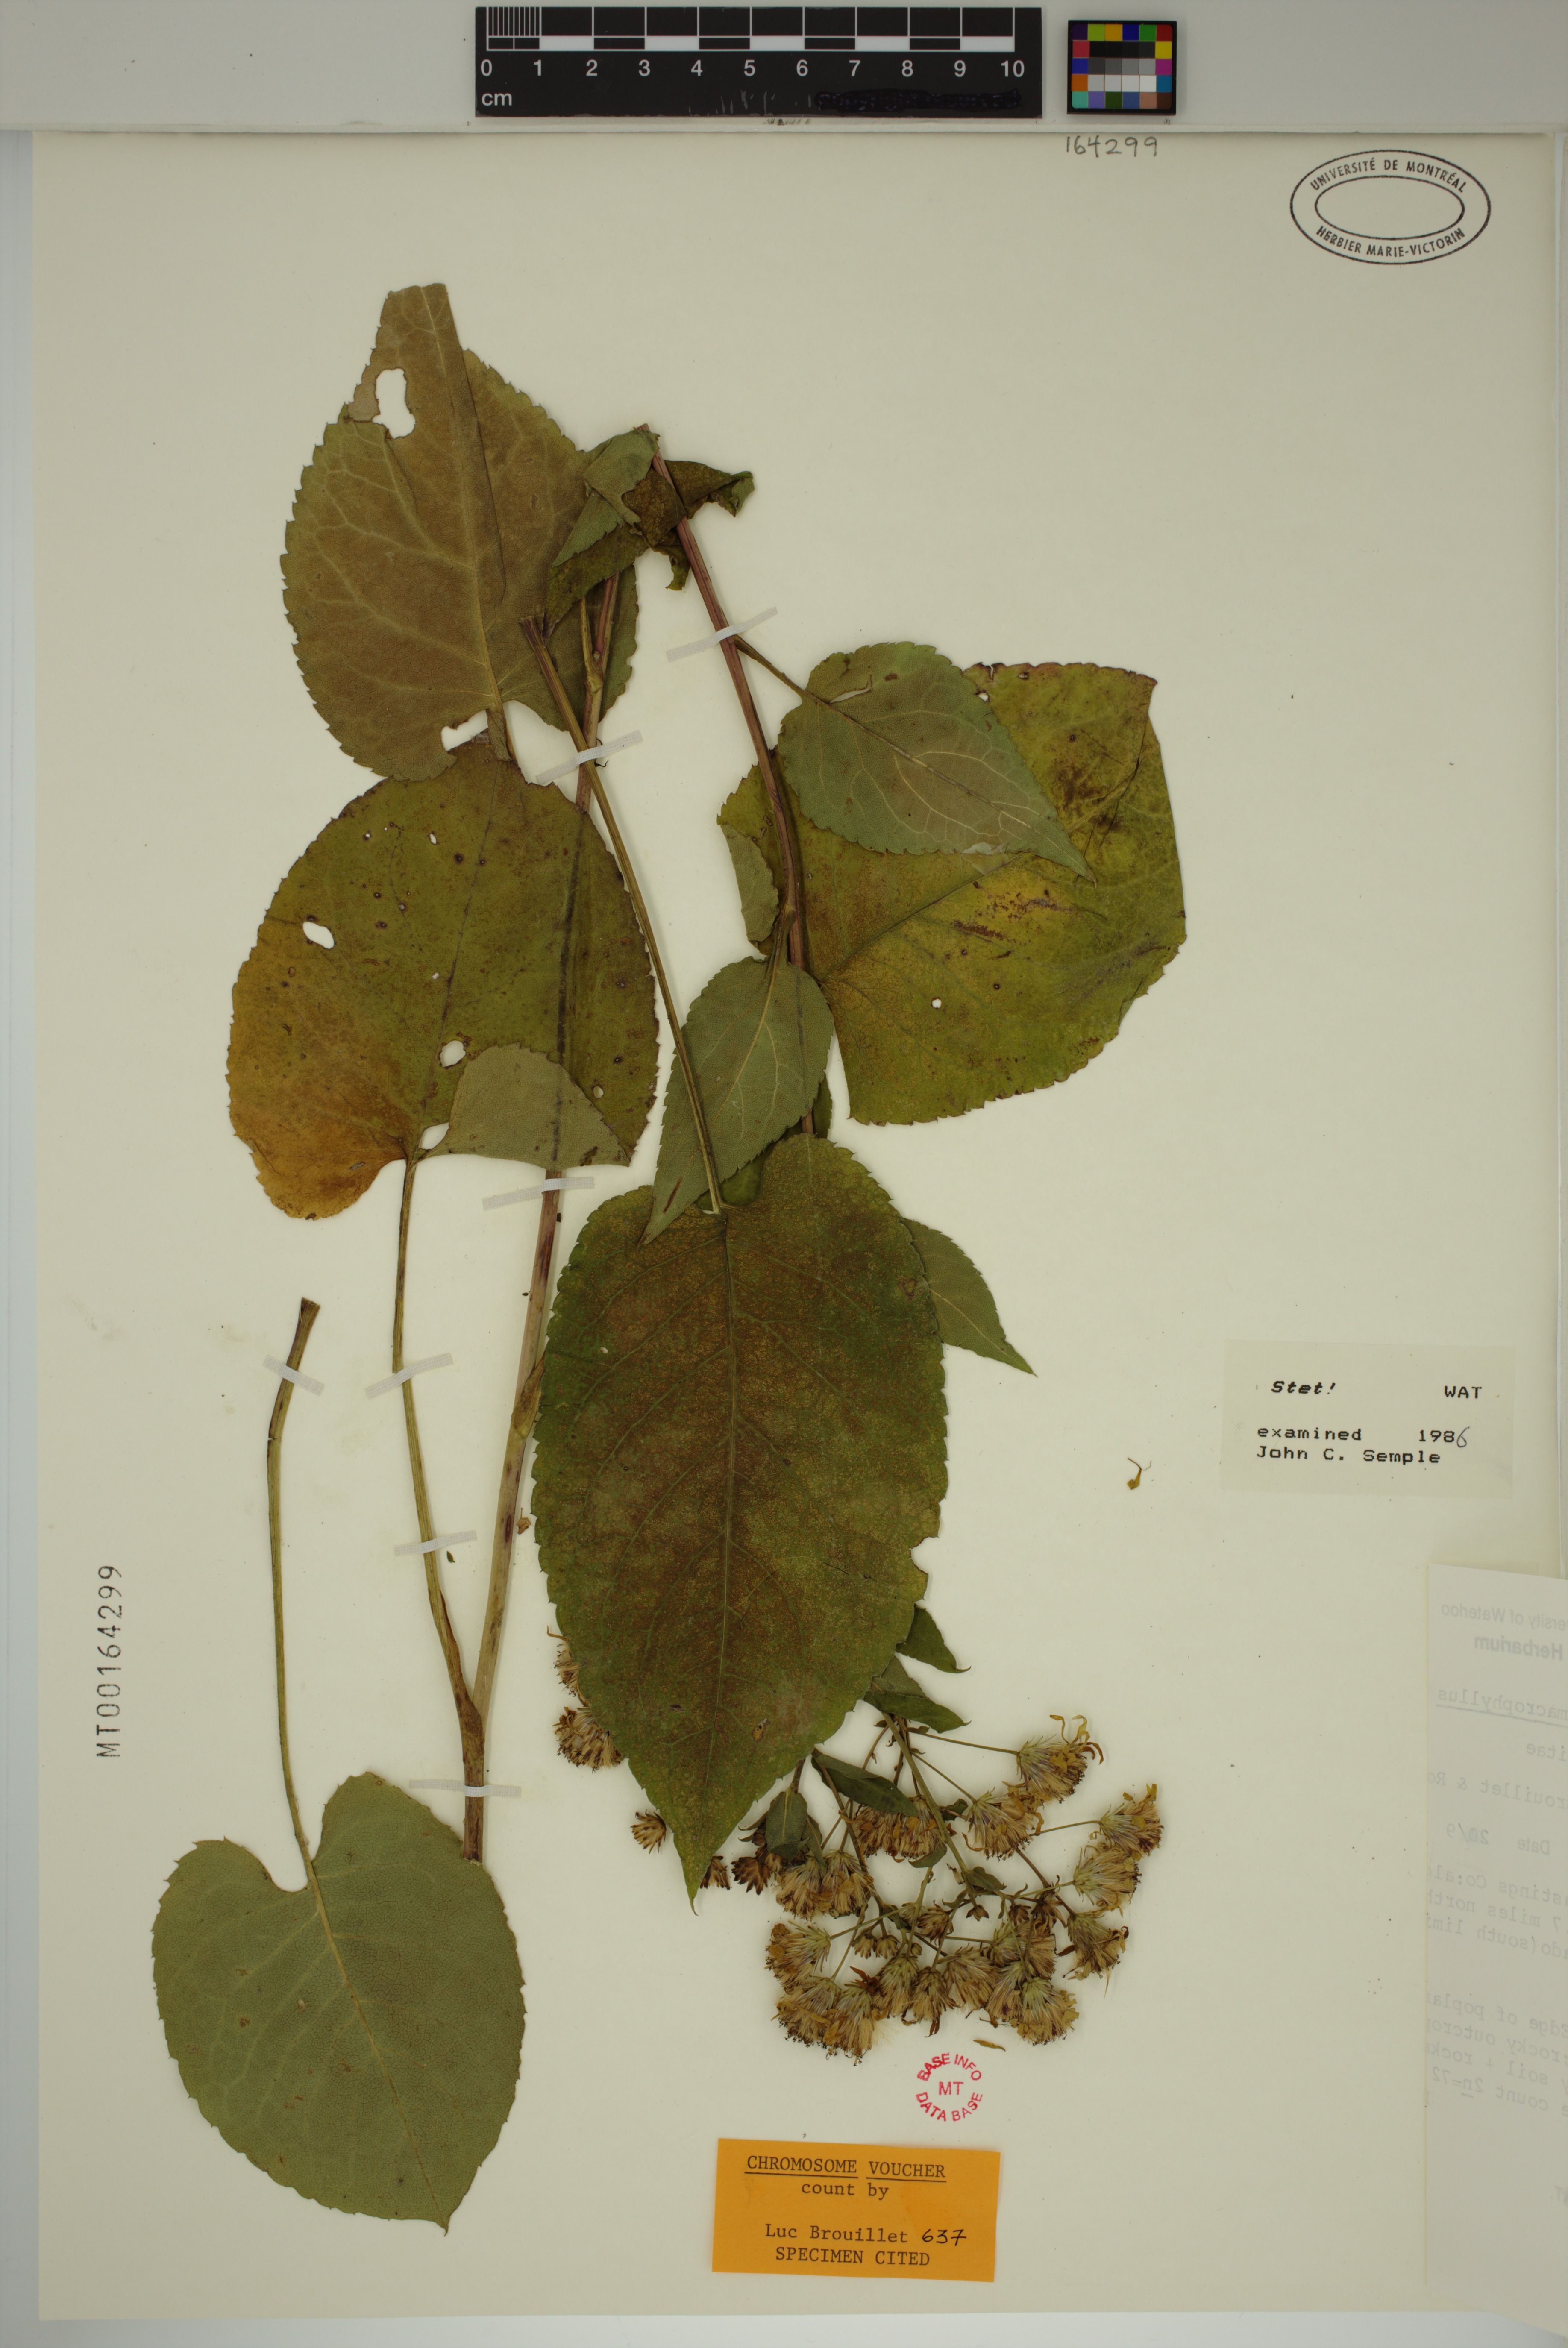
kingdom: Plantae
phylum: Tracheophyta
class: Magnoliopsida
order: Asterales
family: Asteraceae
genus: Eurybia
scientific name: Eurybia macrophylla
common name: Big-leaved aster
